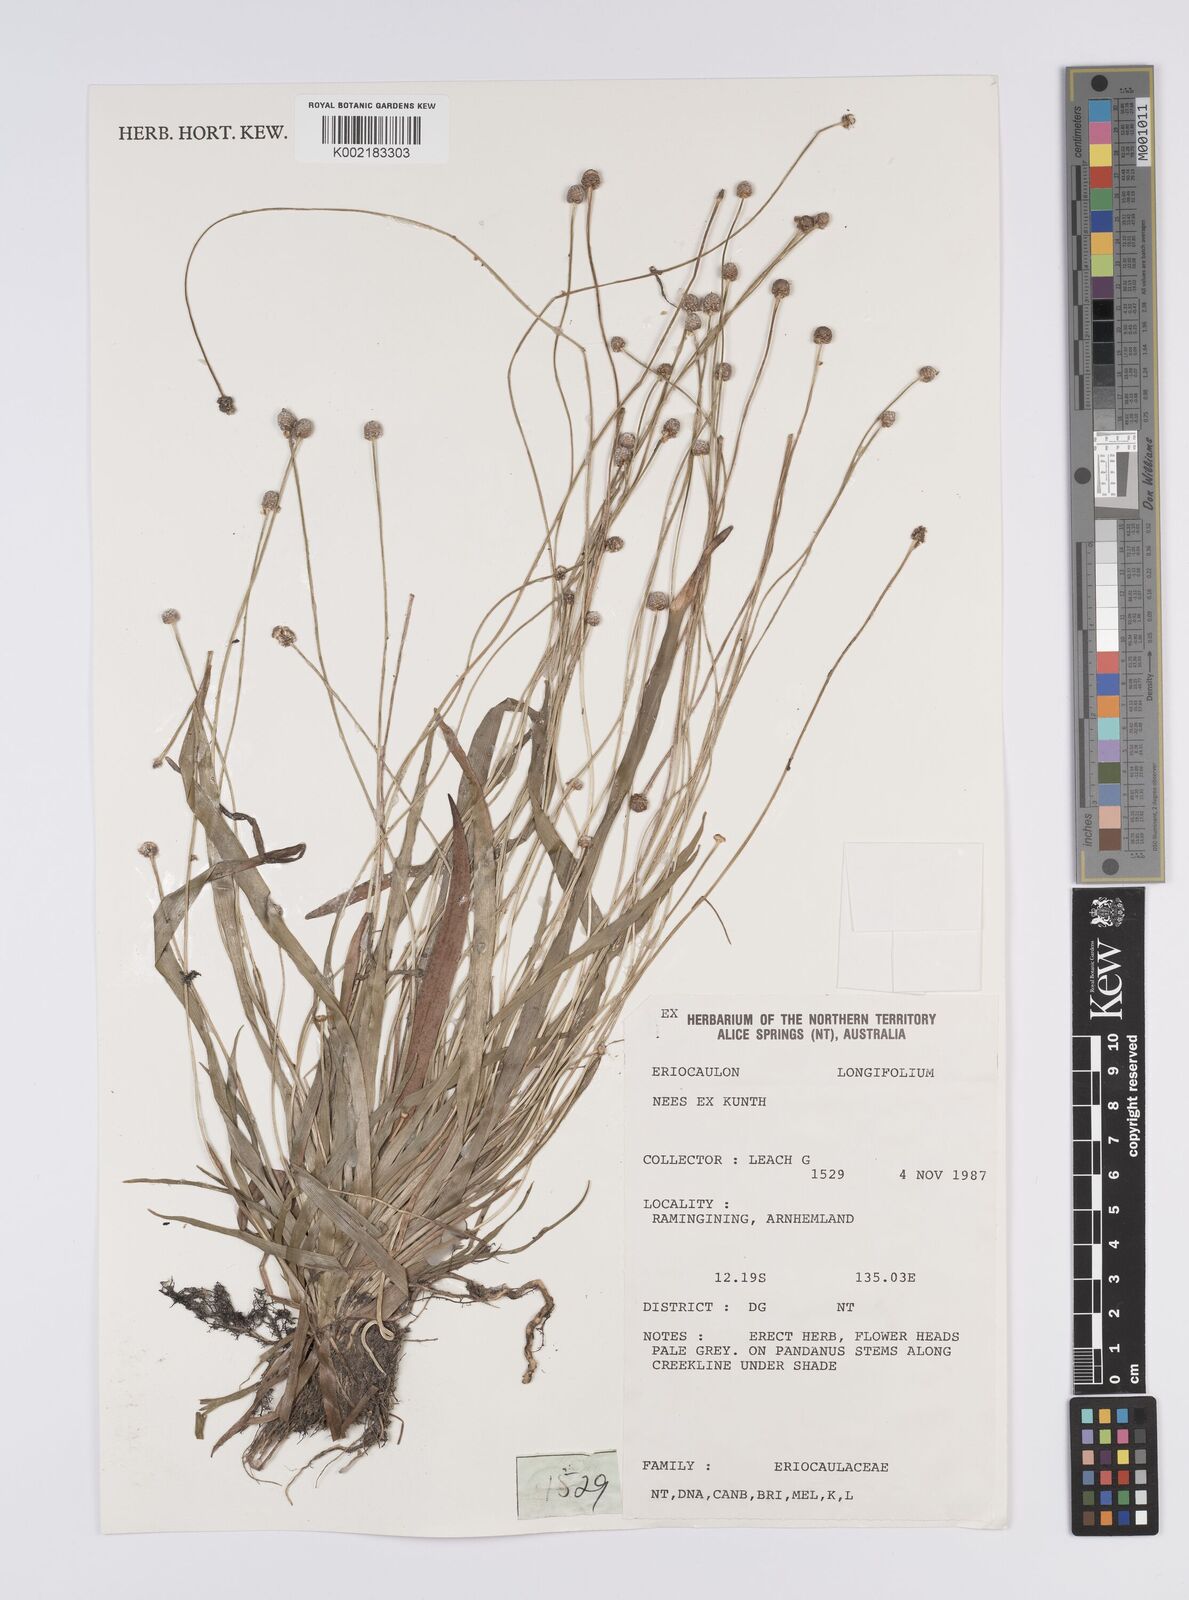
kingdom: Plantae
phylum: Tracheophyta
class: Liliopsida
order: Poales
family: Eriocaulaceae
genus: Eriocaulon
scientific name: Eriocaulon
